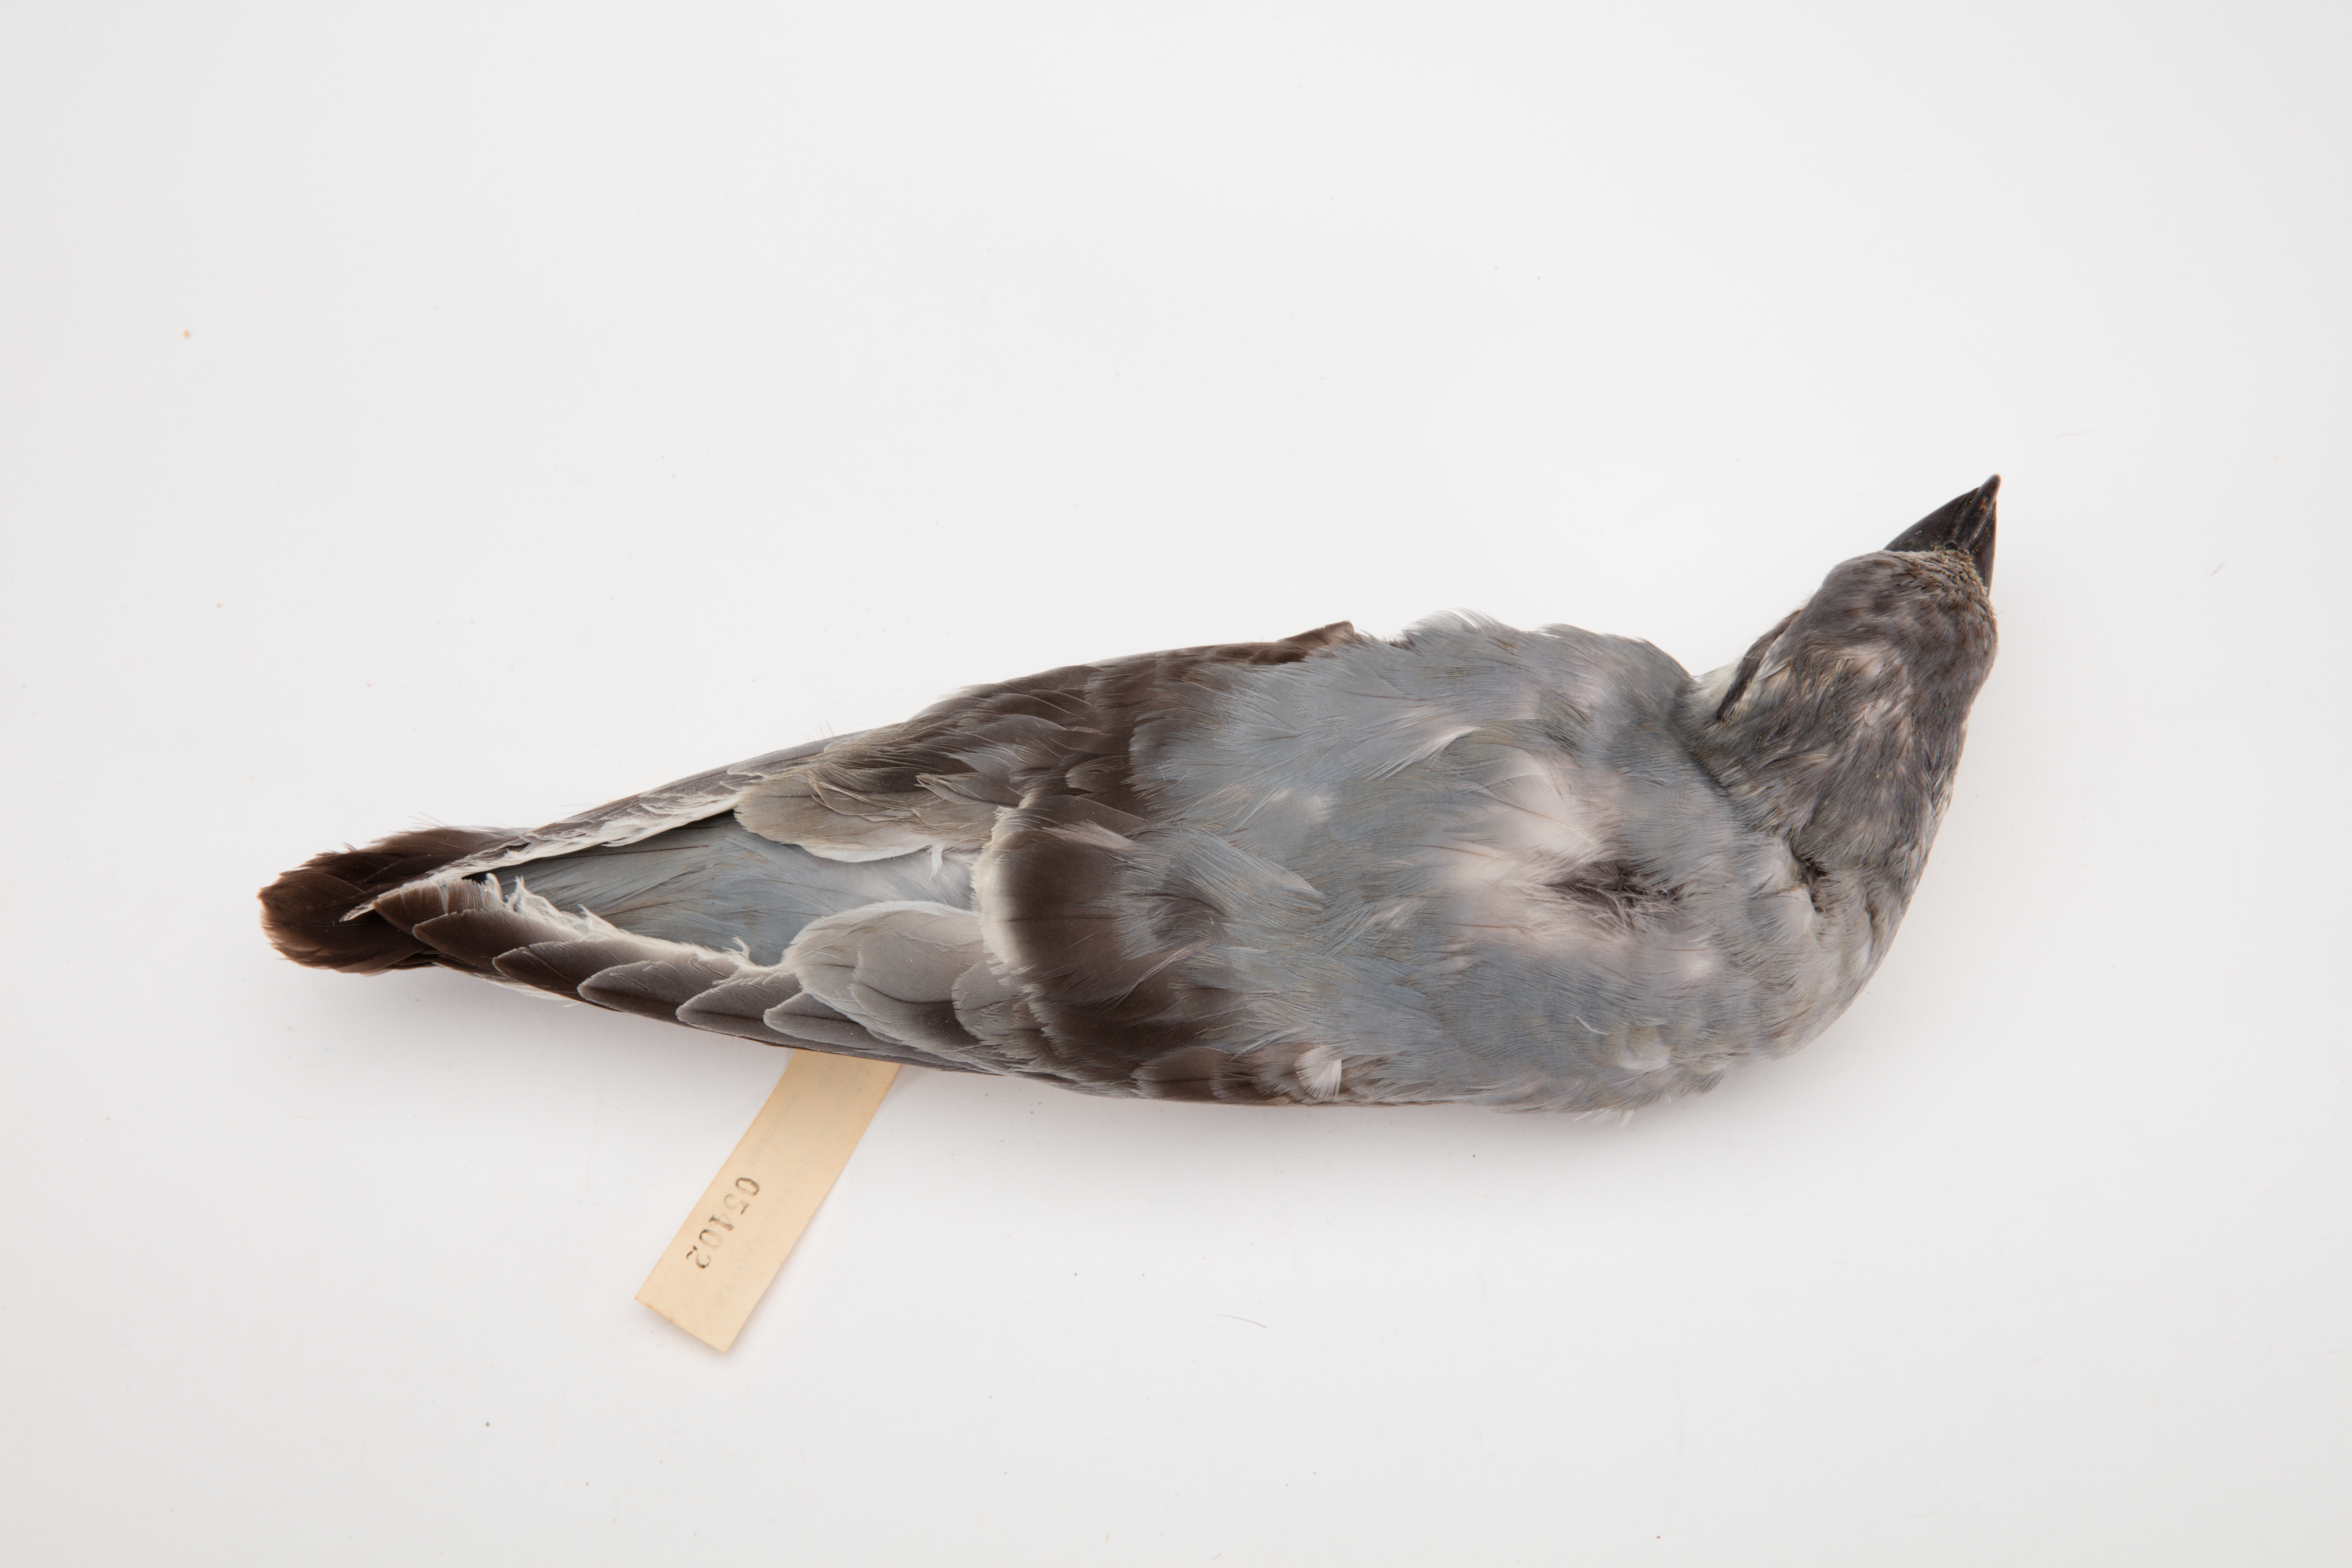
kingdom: Animalia
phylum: Chordata
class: Aves
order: Procellariiformes
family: Procellariidae
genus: Pachyptila
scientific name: Pachyptila vittata
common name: Broad-billed prion
